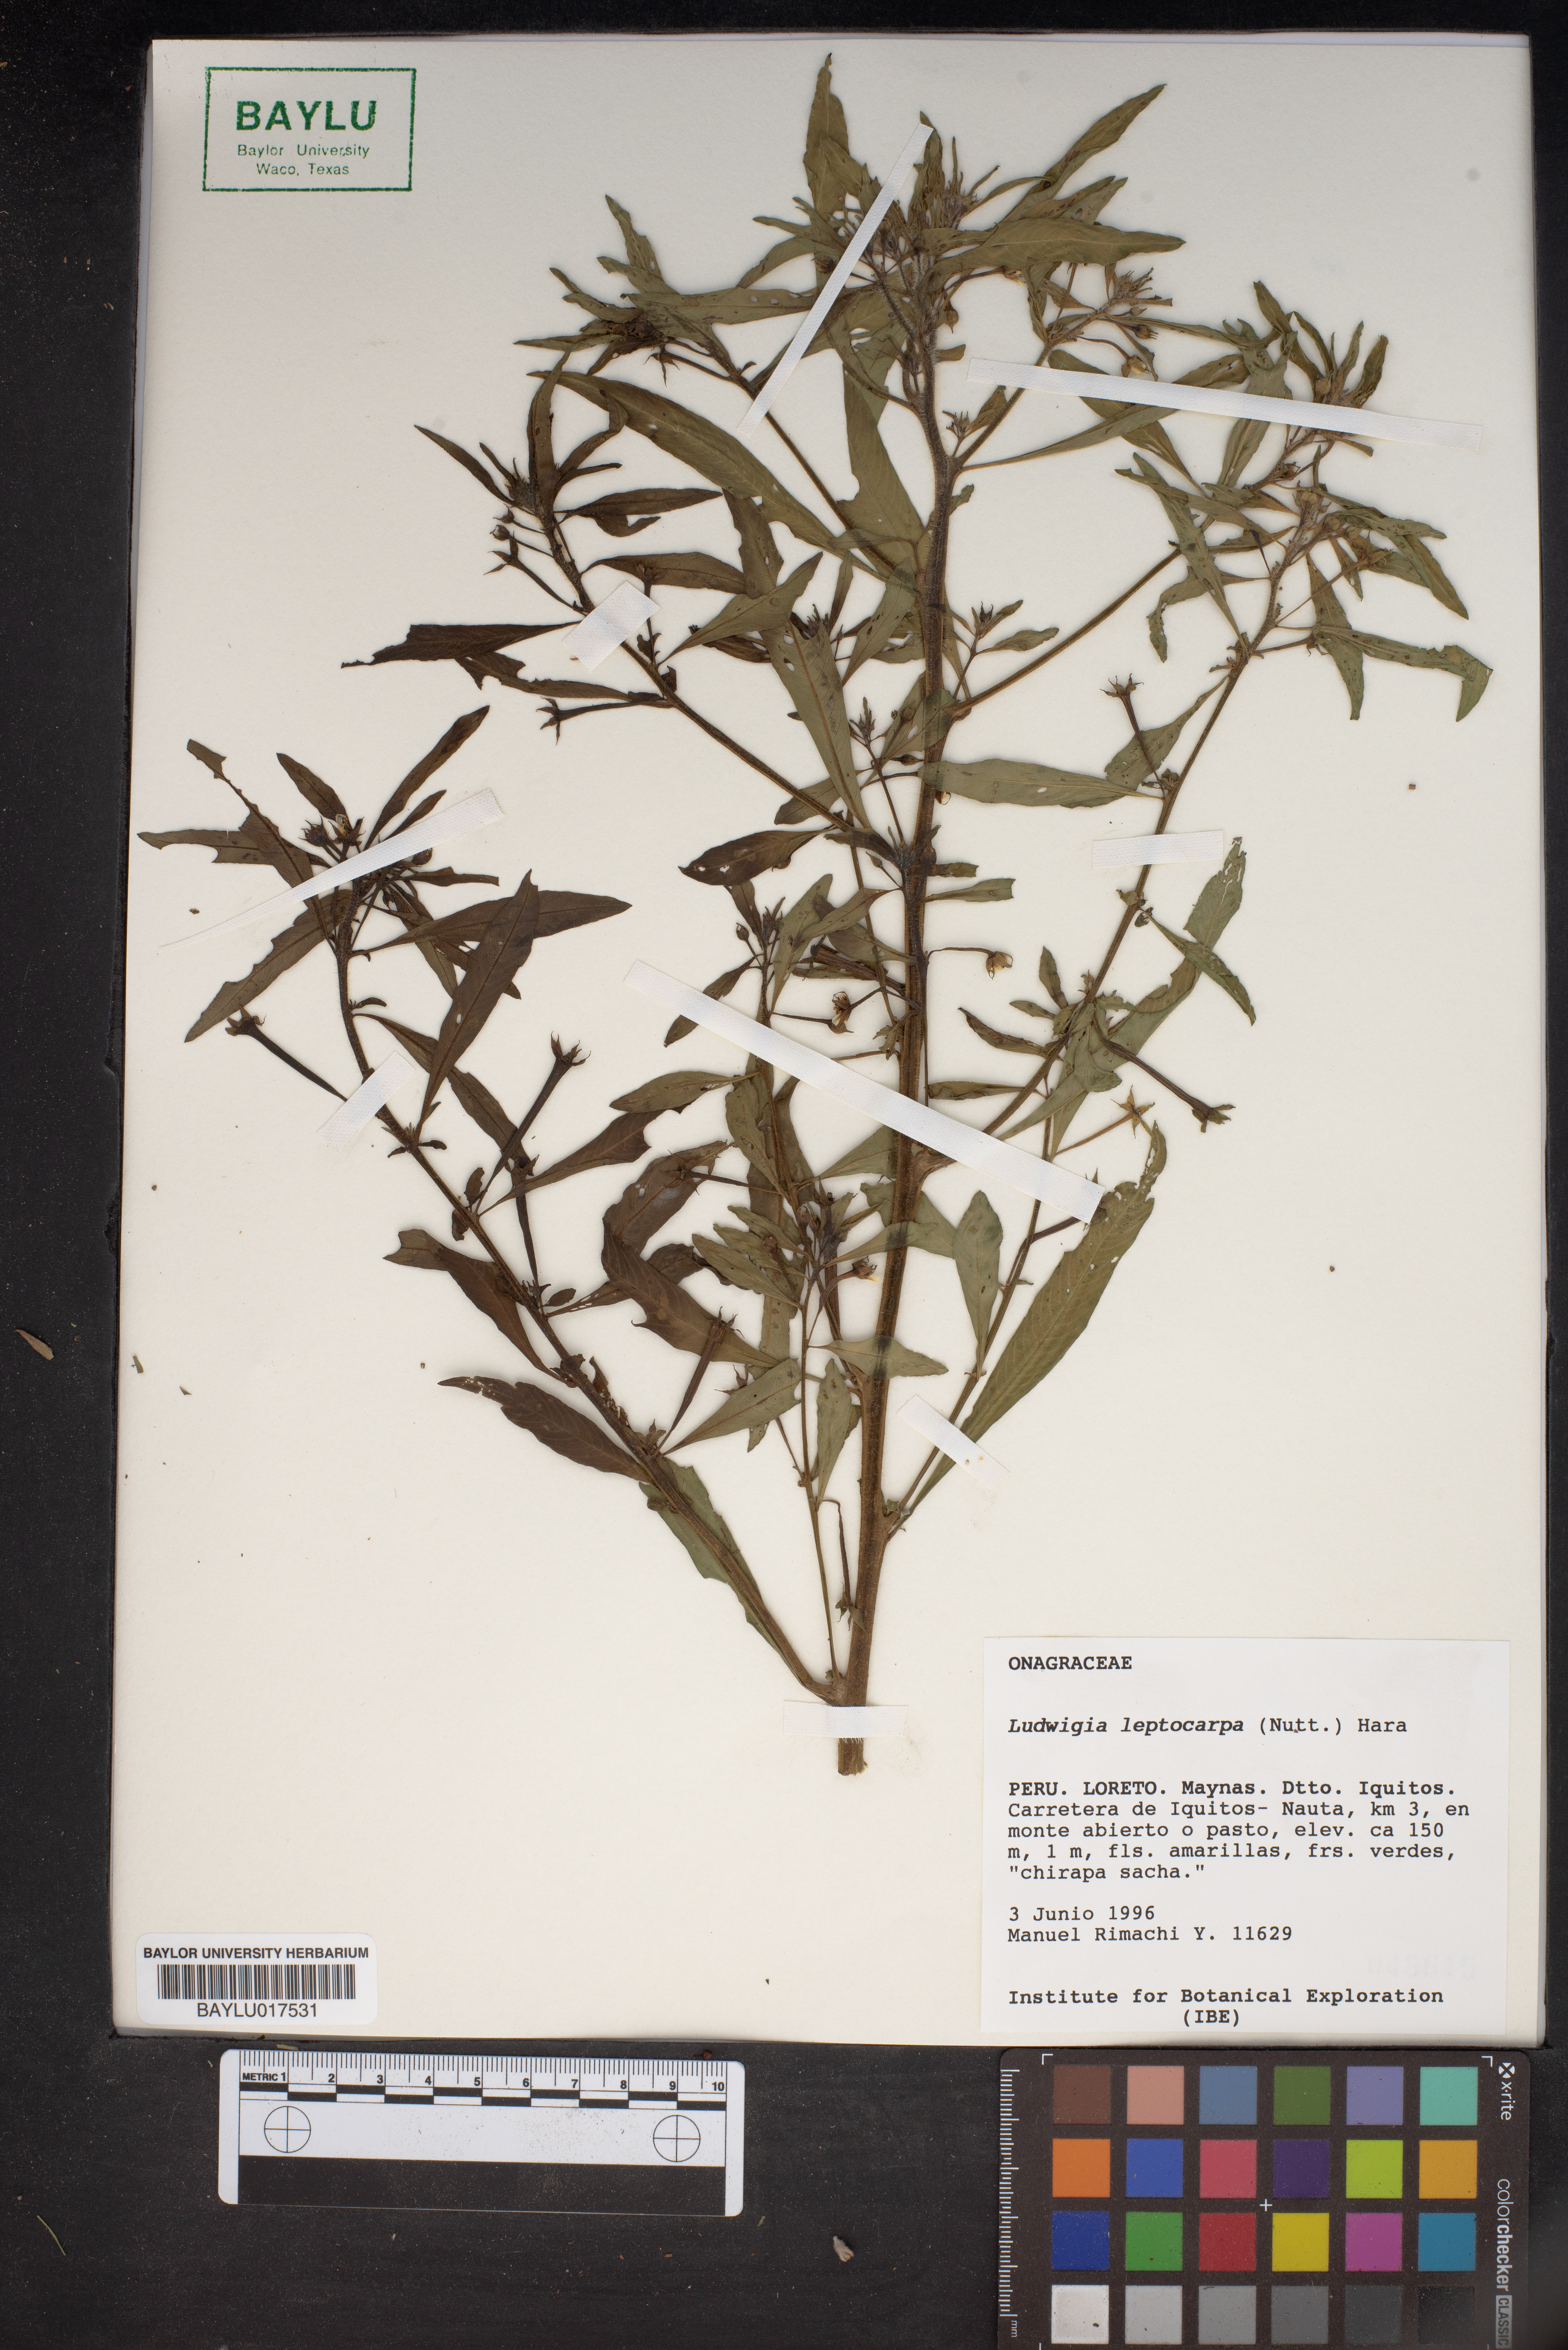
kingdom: Plantae
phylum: Tracheophyta
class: Magnoliopsida
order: Myrtales
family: Onagraceae
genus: Ludwigia
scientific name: Ludwigia leptocarpa
